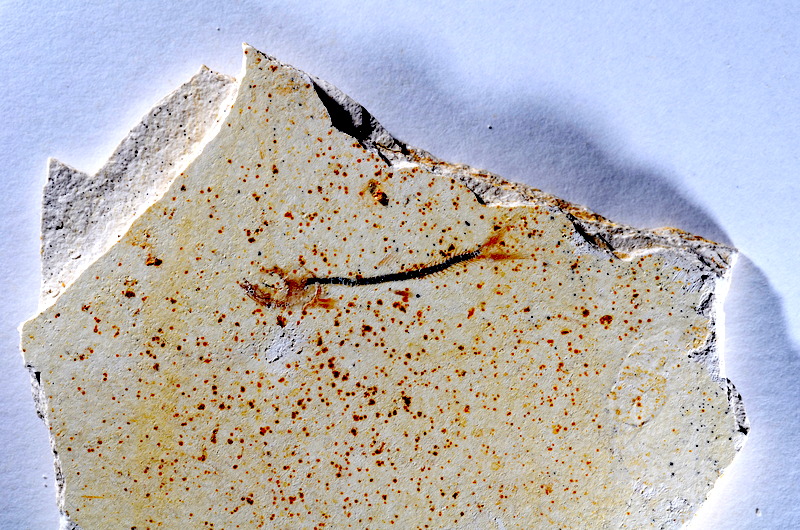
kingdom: Animalia
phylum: Chordata
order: Salmoniformes
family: Orthogonikleithridae
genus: Orthogonikleithrus
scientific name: Orthogonikleithrus hoelli
